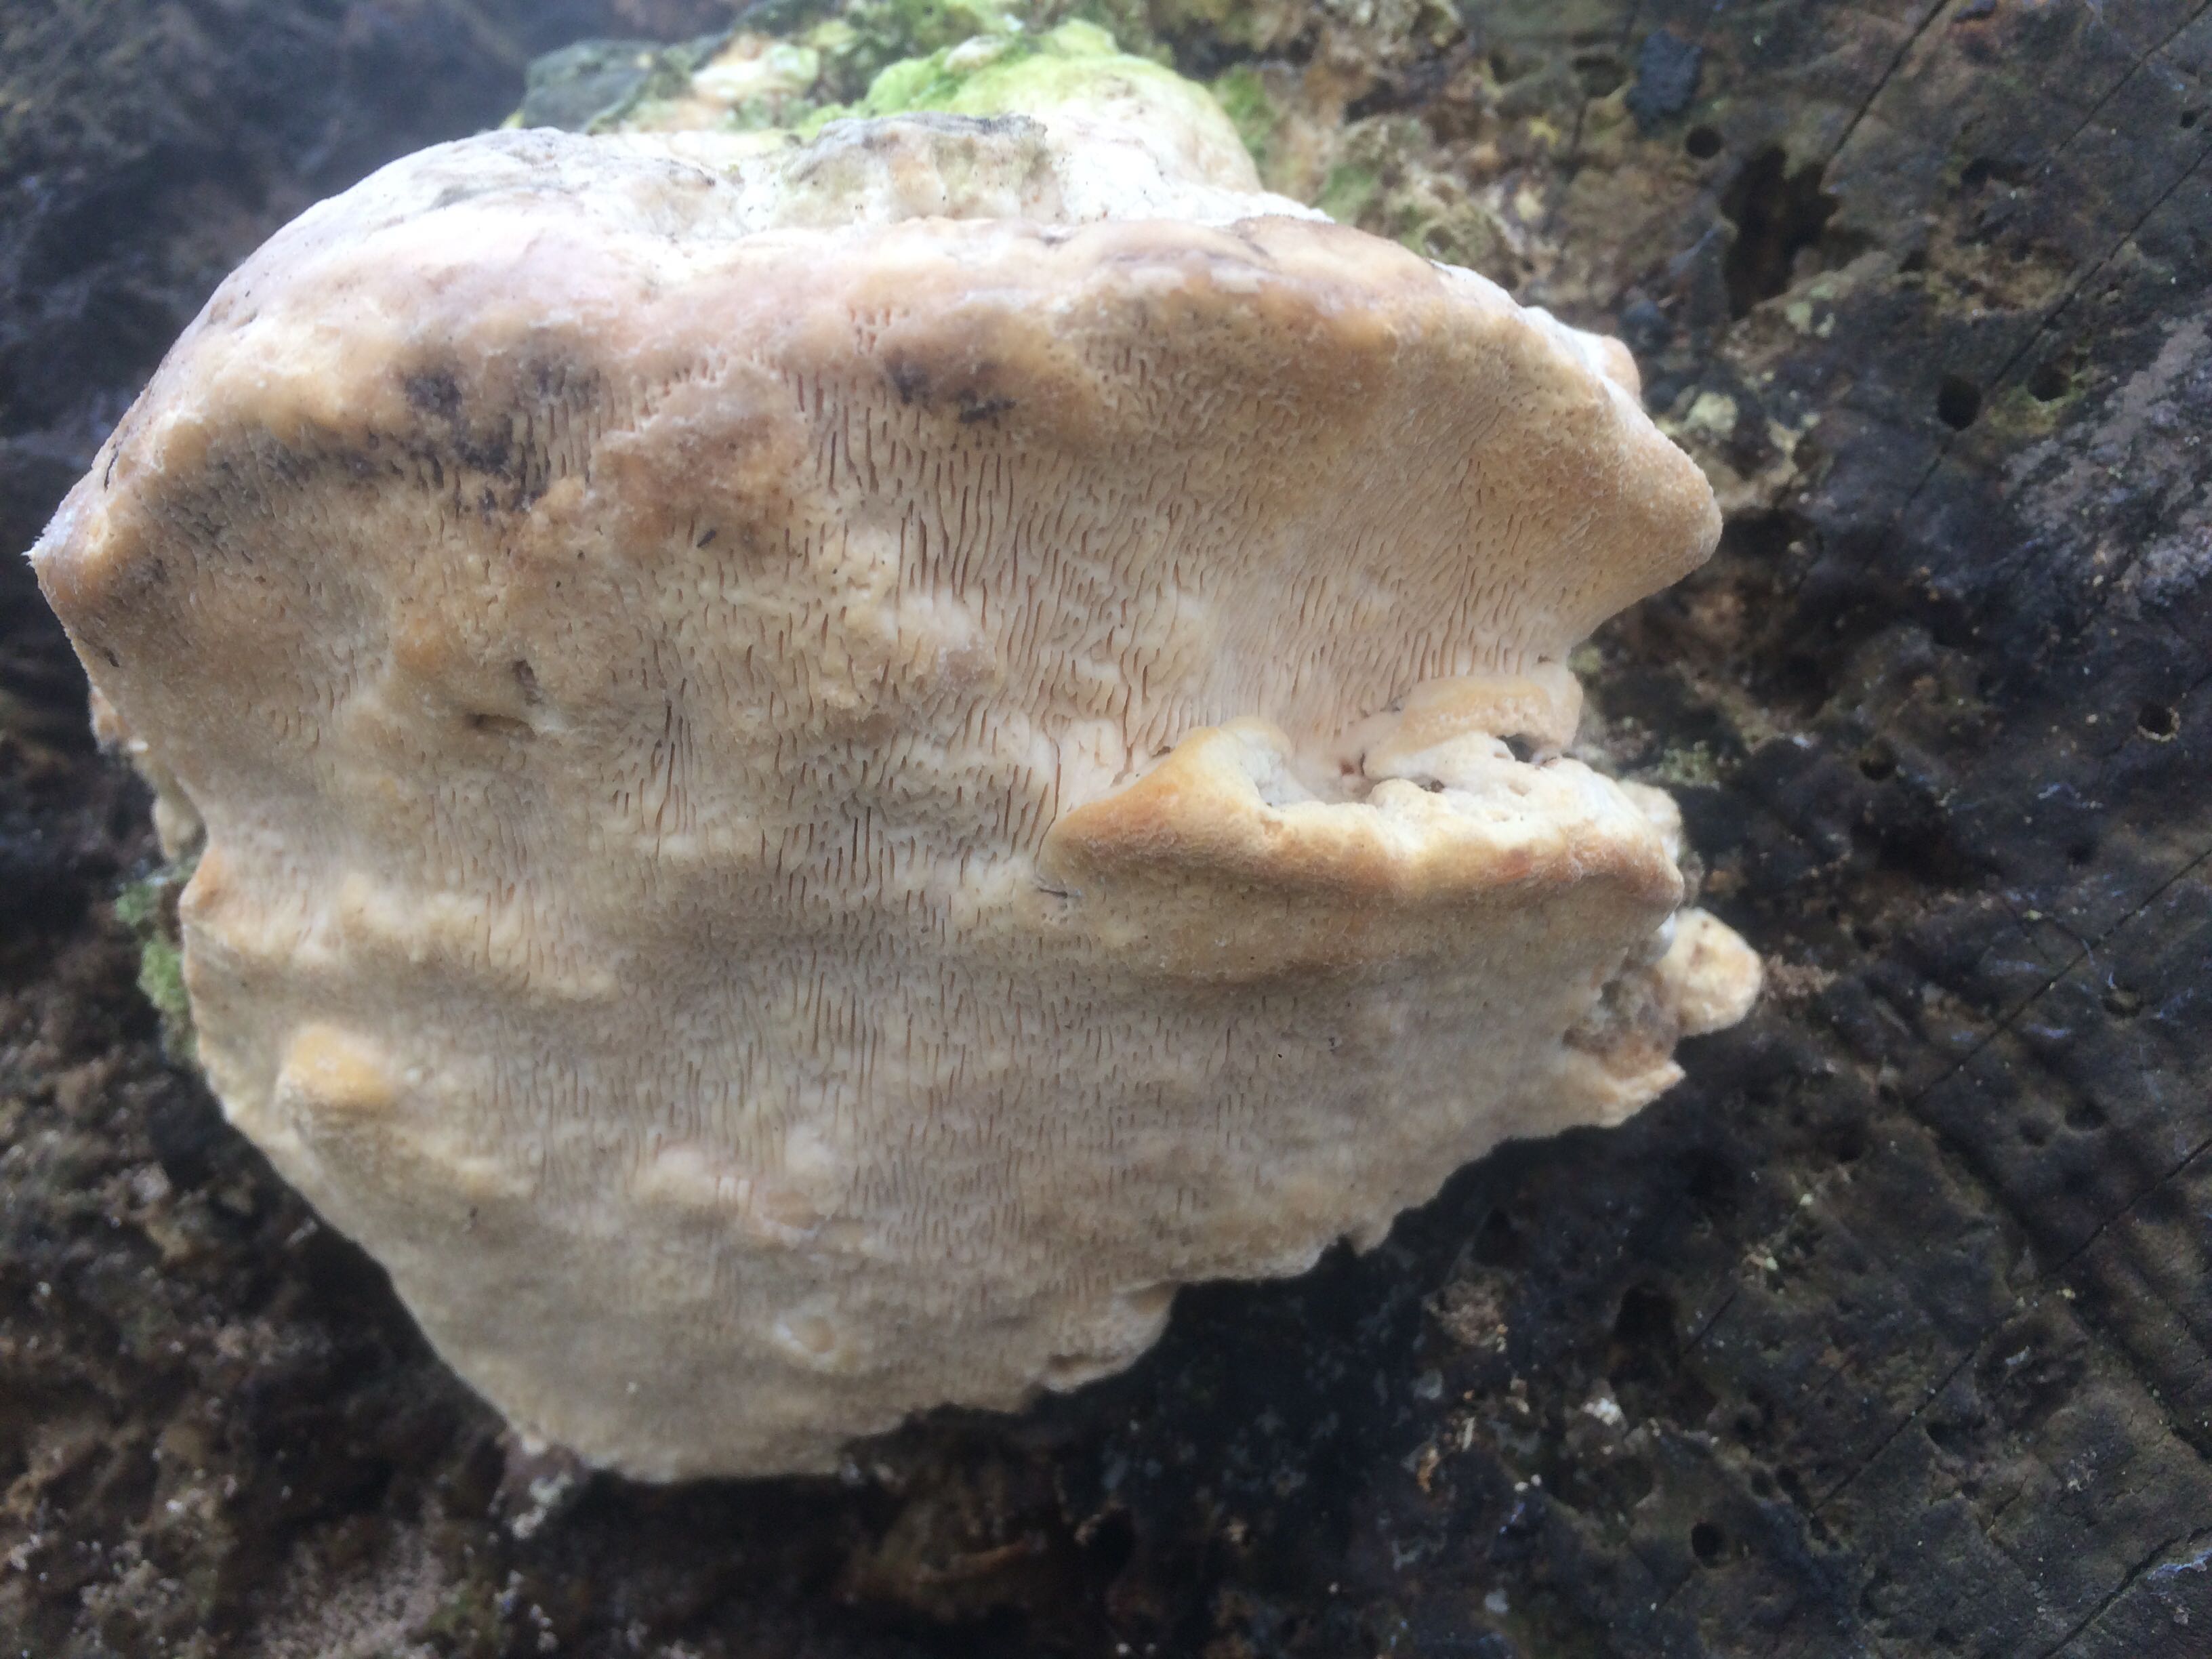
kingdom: Fungi
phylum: Basidiomycota
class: Agaricomycetes
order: Polyporales
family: Polyporaceae
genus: Trametes
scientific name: Trametes gibbosa
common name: puklet læderporesvamp
